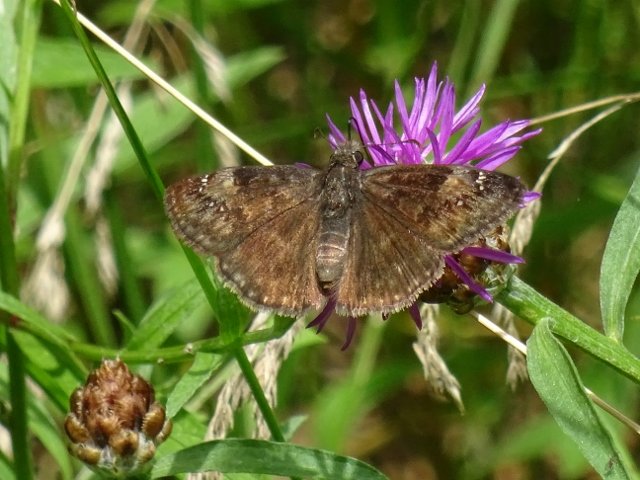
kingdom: Animalia
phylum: Arthropoda
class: Insecta
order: Lepidoptera
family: Hesperiidae
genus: Gesta
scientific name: Gesta
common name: Wild Indigo Duskywing
